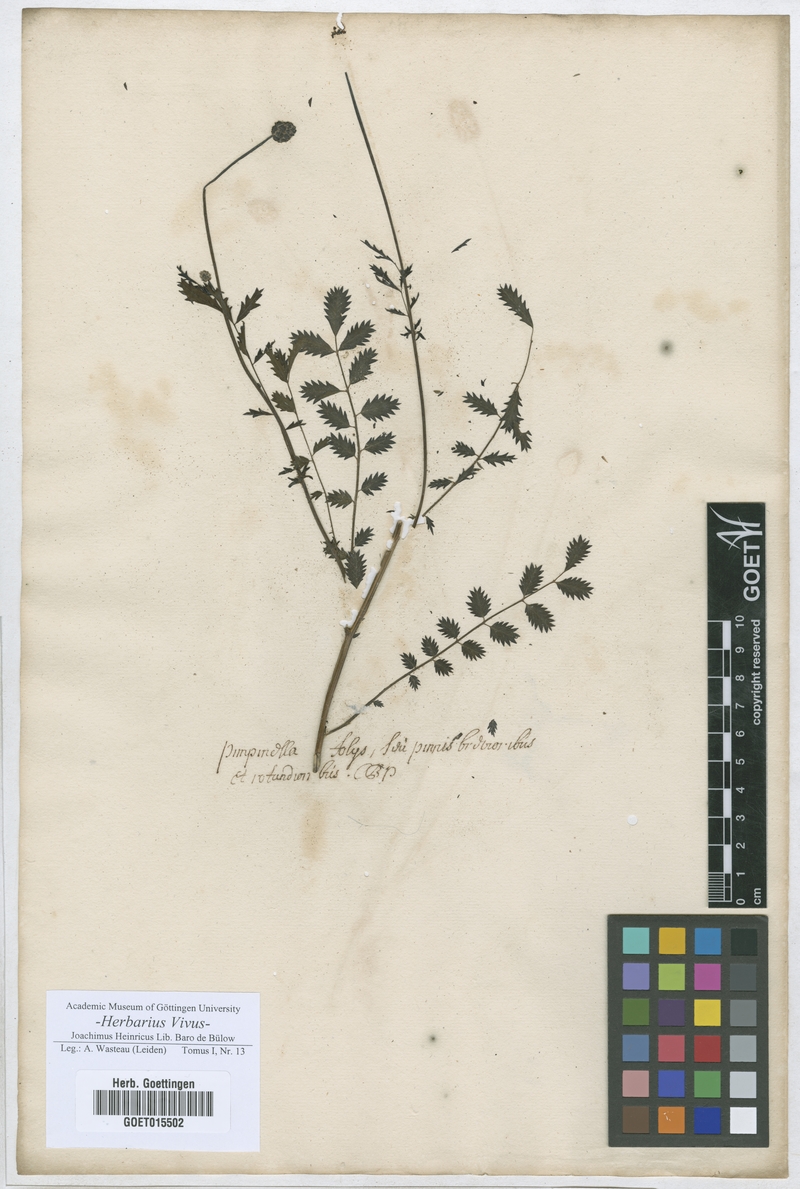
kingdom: Plantae
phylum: Tracheophyta
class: Magnoliopsida
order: Rosales
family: Rosaceae
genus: Poterium
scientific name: Poterium
